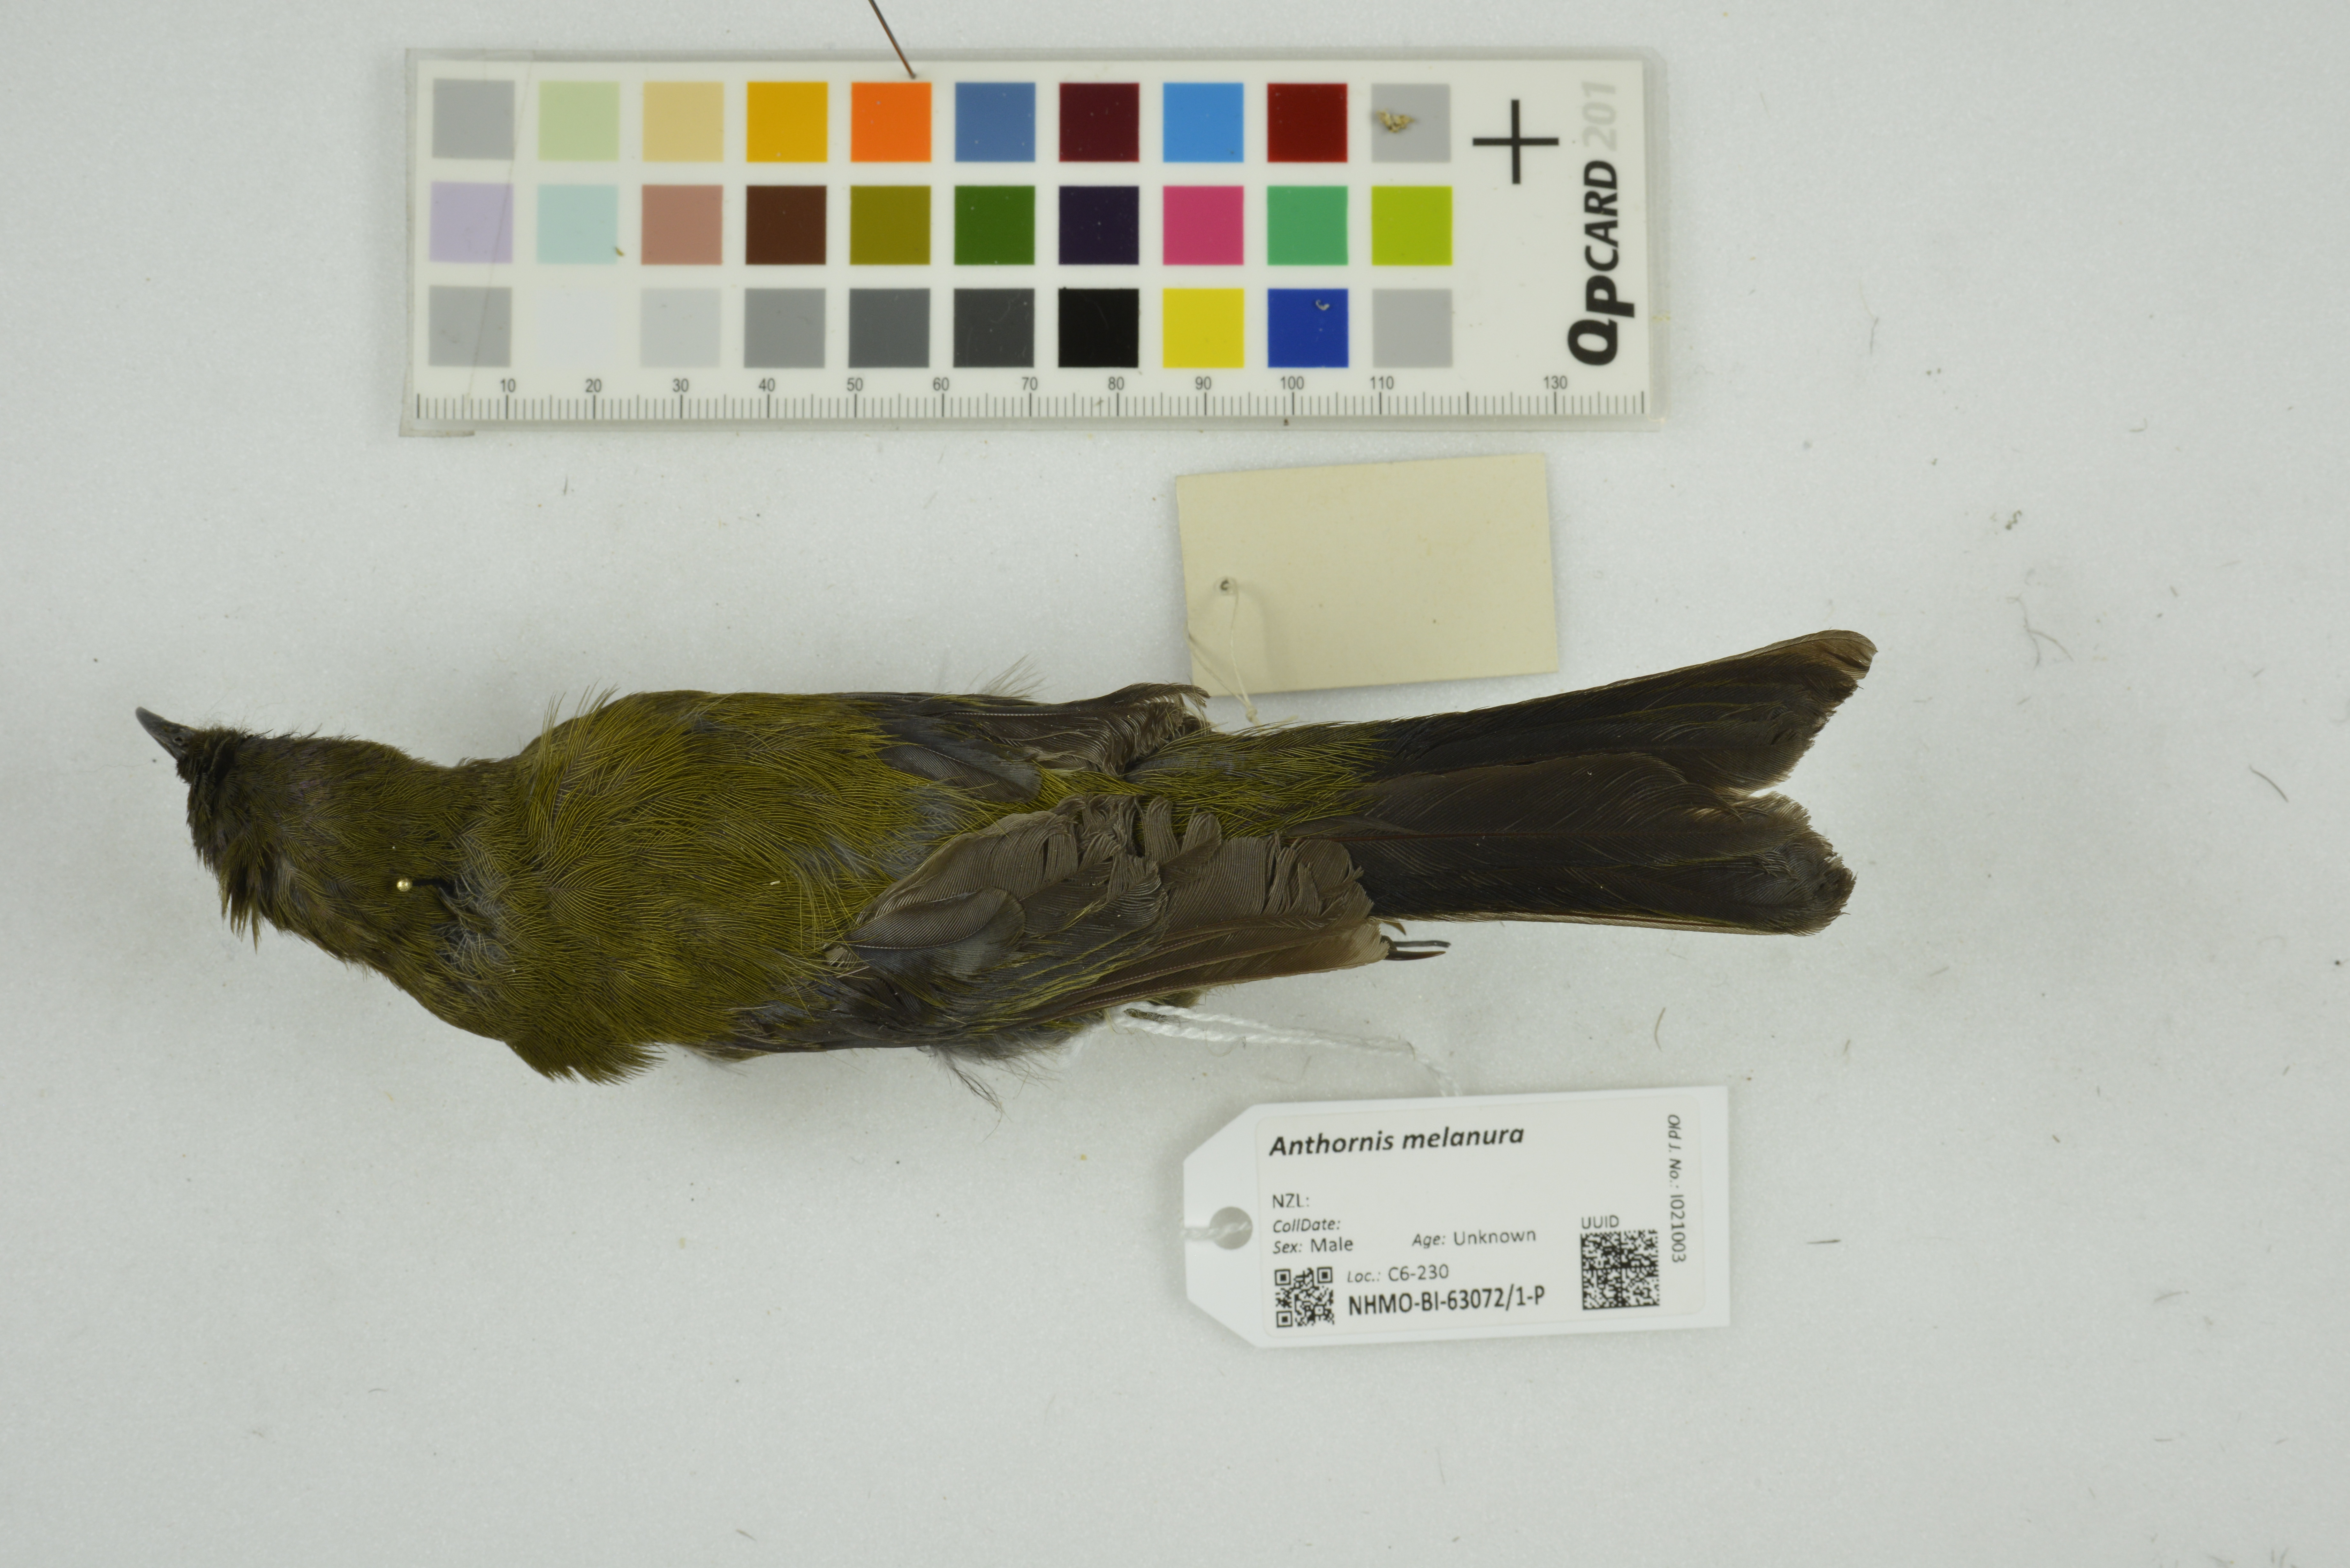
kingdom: Animalia
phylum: Chordata
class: Aves
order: Passeriformes
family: Meliphagidae
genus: Anthornis
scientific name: Anthornis melanura
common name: New zealand bellbird
